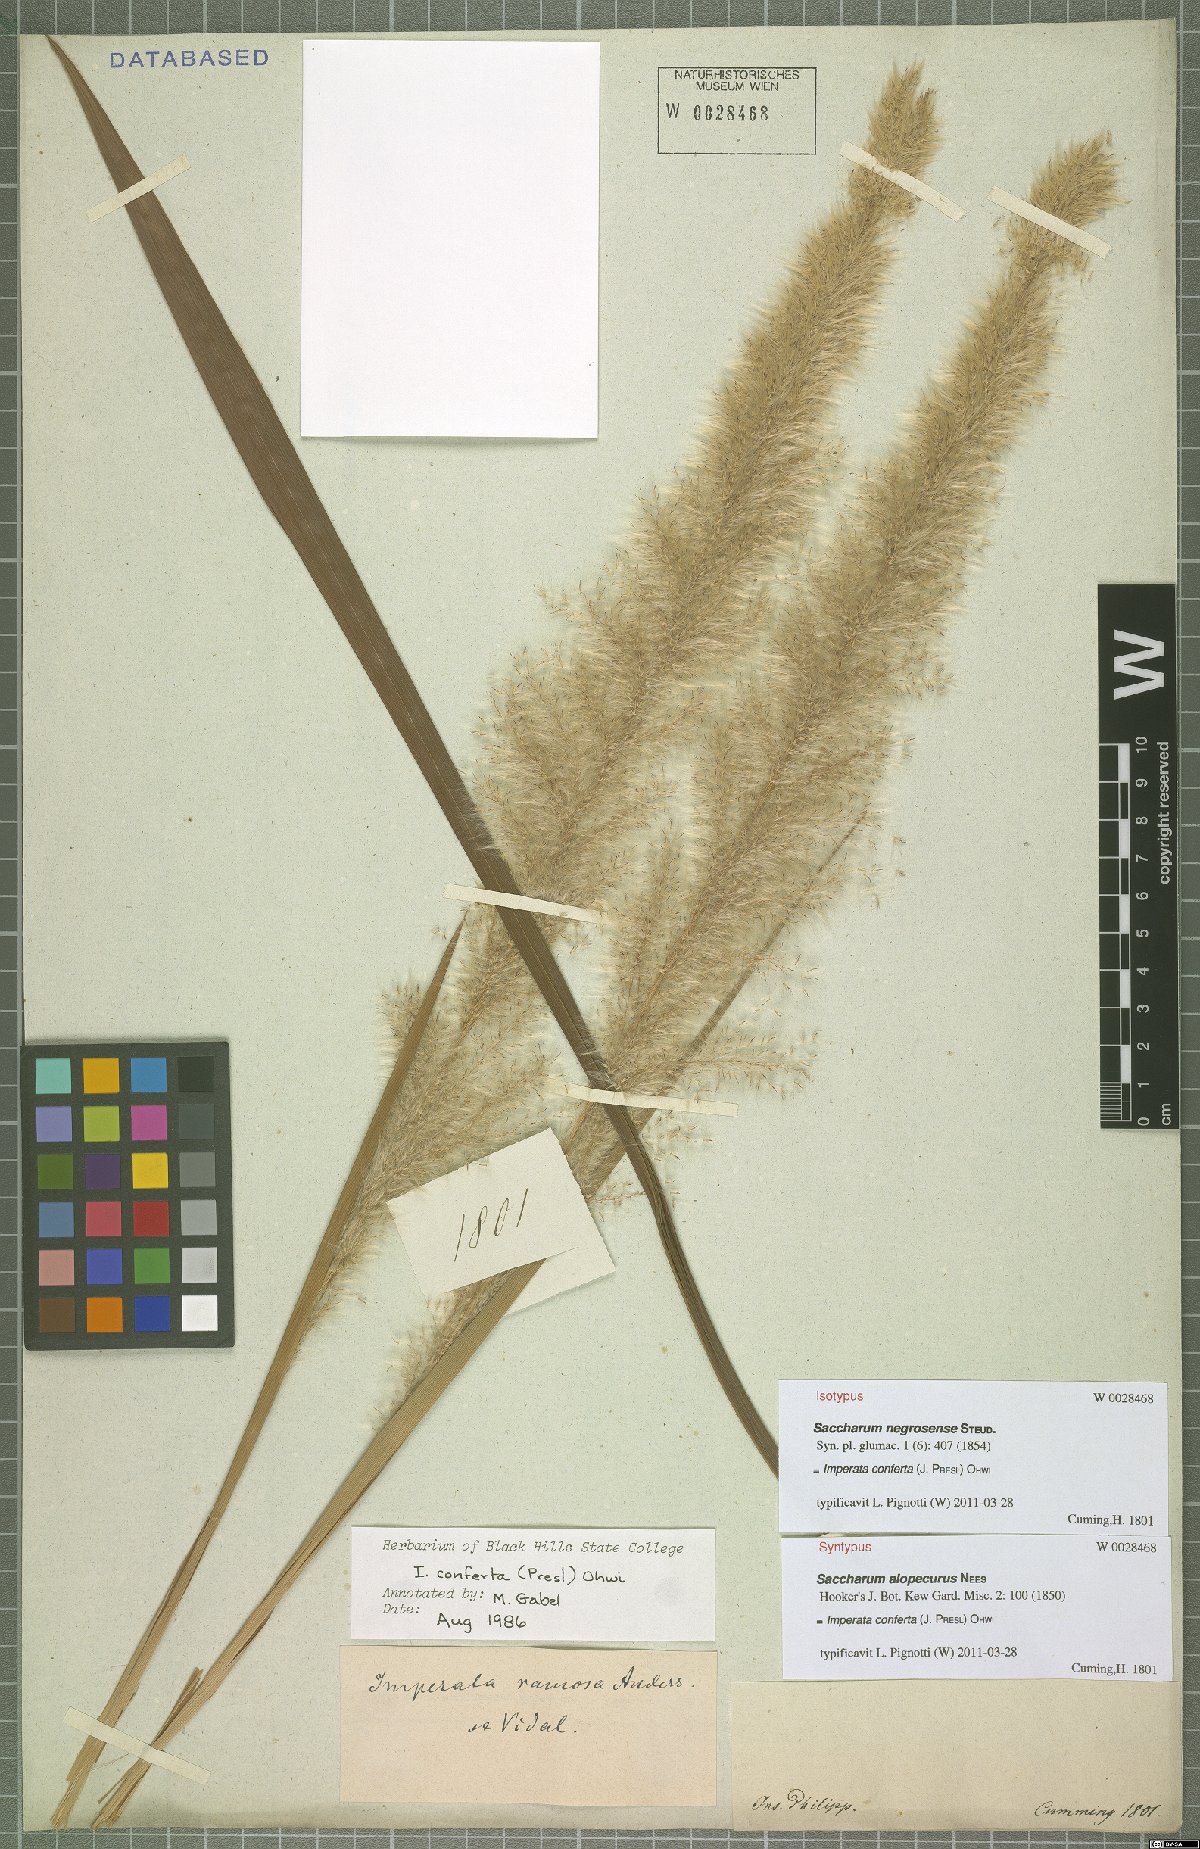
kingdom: Plantae
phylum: Tracheophyta
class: Liliopsida
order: Poales
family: Poaceae
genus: Imperata
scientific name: Imperata conferta
